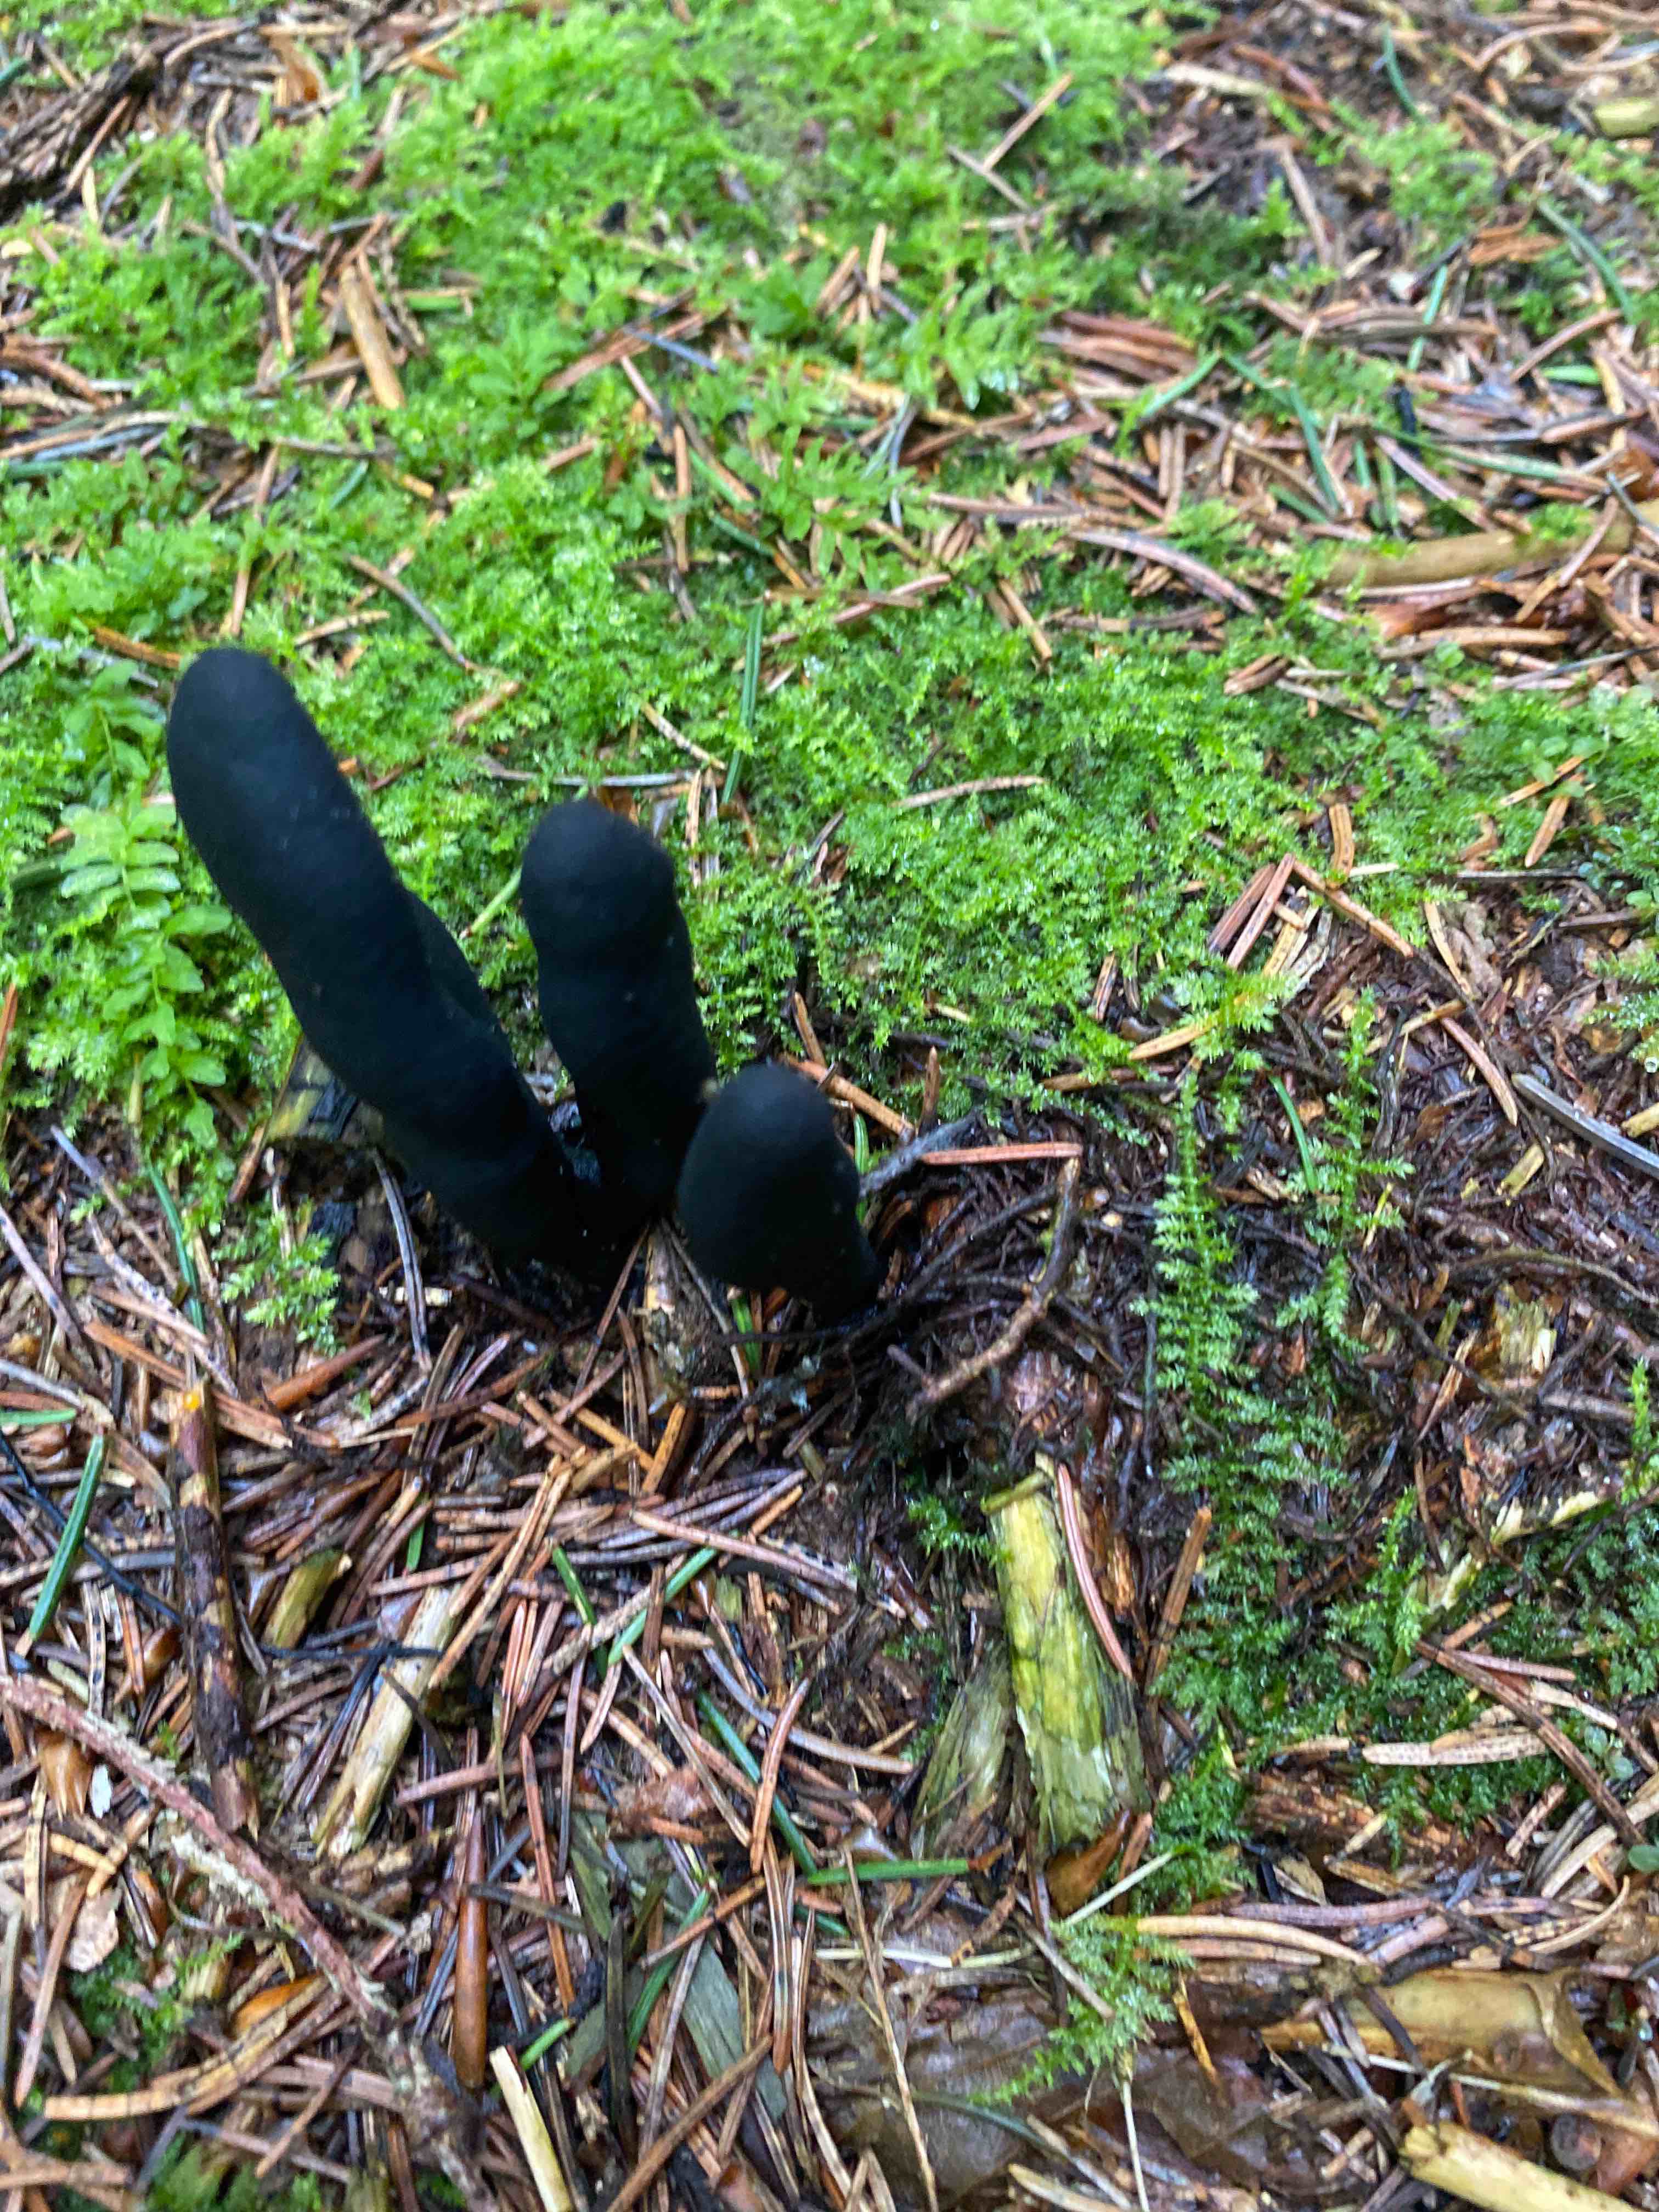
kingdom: Fungi
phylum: Ascomycota
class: Sordariomycetes
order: Xylariales
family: Xylariaceae
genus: Xylaria
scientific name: Xylaria longipes
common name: slank stødsvamp
